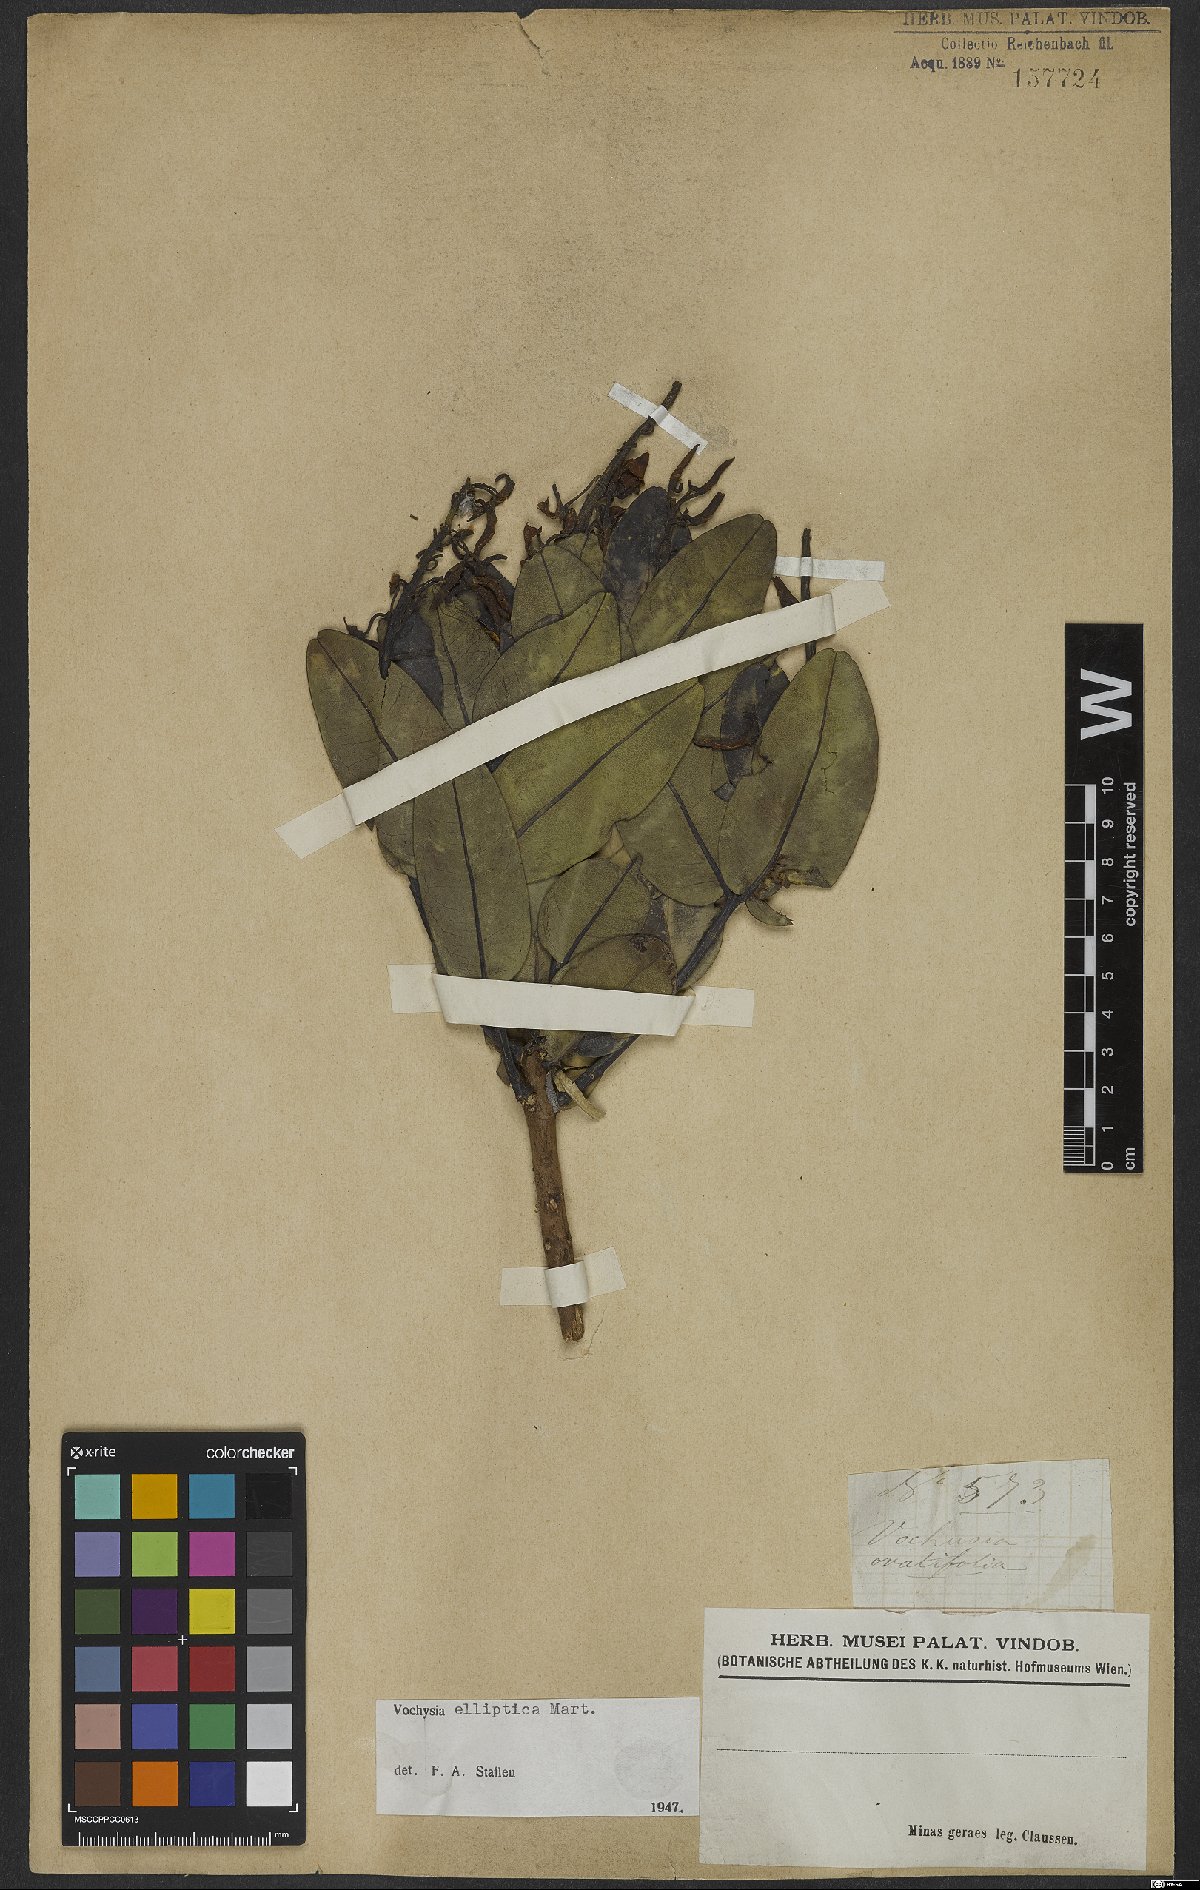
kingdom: Plantae
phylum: Tracheophyta
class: Magnoliopsida
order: Myrtales
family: Vochysiaceae
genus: Vochysia
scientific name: Vochysia elliptica
